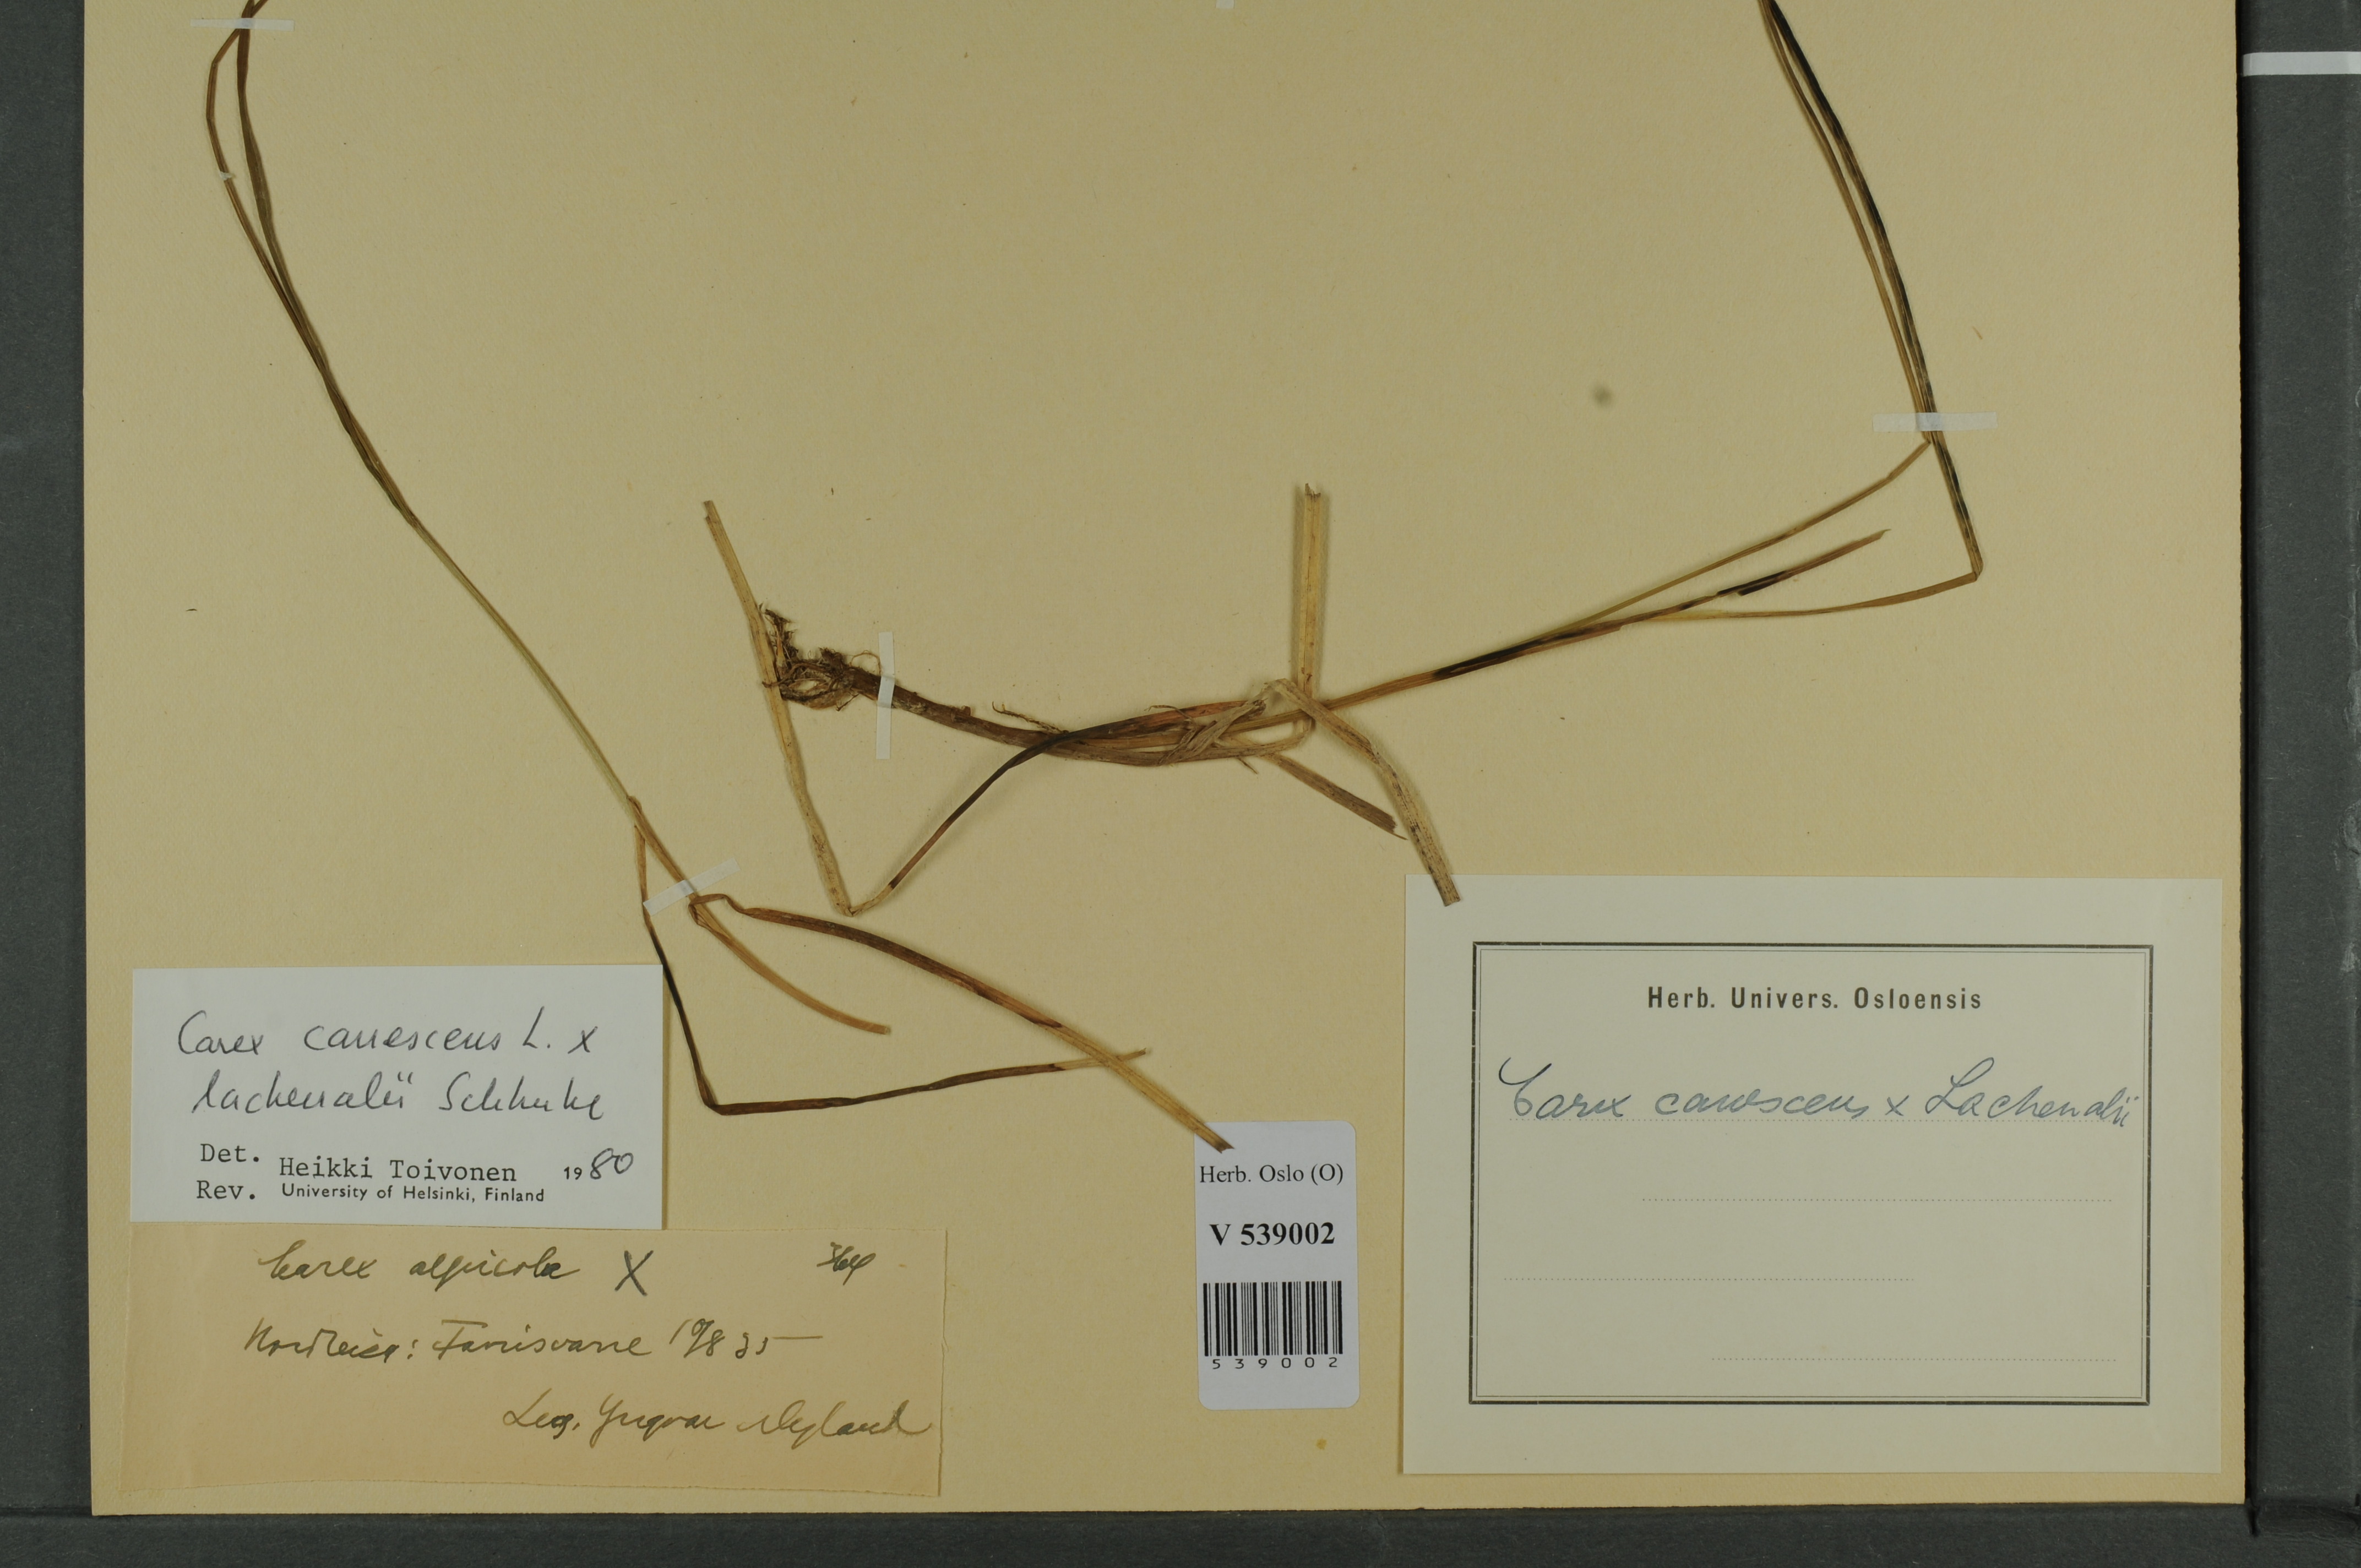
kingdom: Plantae
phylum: Tracheophyta
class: Liliopsida
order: Poales
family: Cyperaceae
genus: Carex
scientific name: Carex
